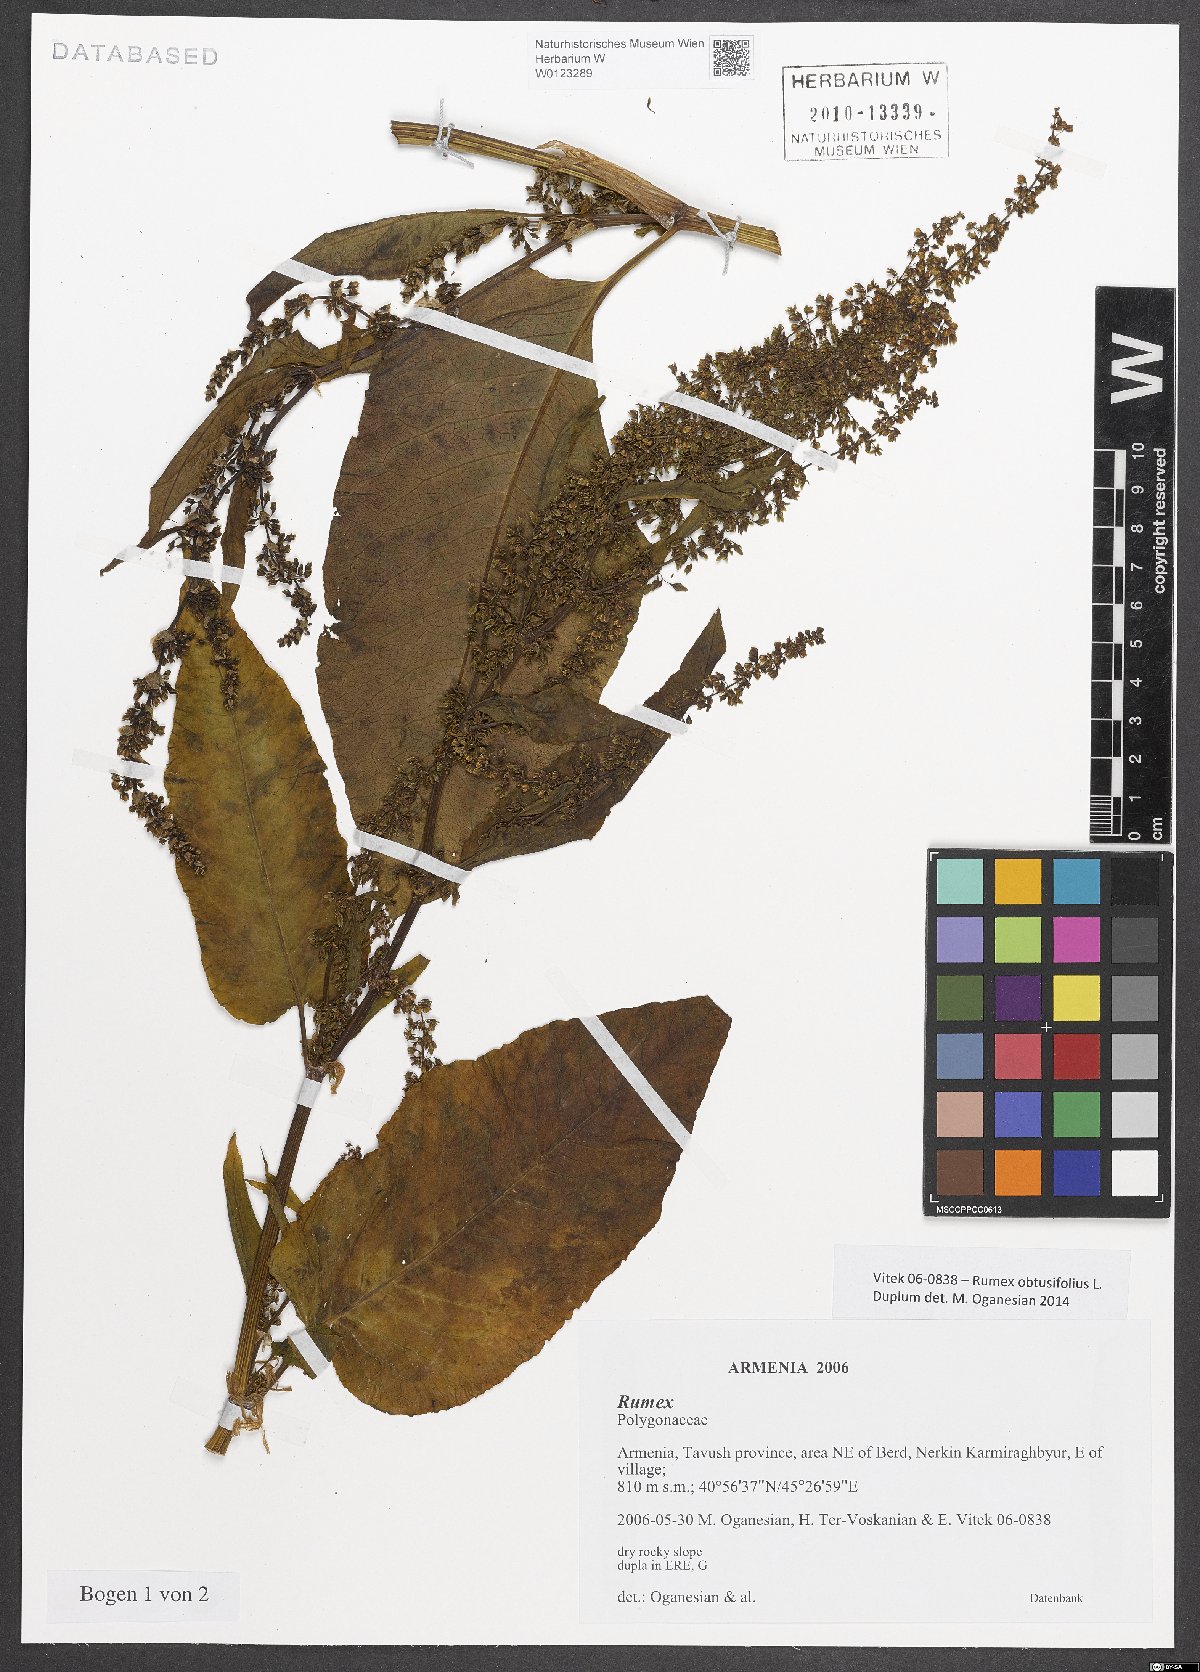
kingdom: Plantae
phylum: Tracheophyta
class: Magnoliopsida
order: Caryophyllales
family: Polygonaceae
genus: Rumex
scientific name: Rumex obtusifolius
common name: Bitter dock
